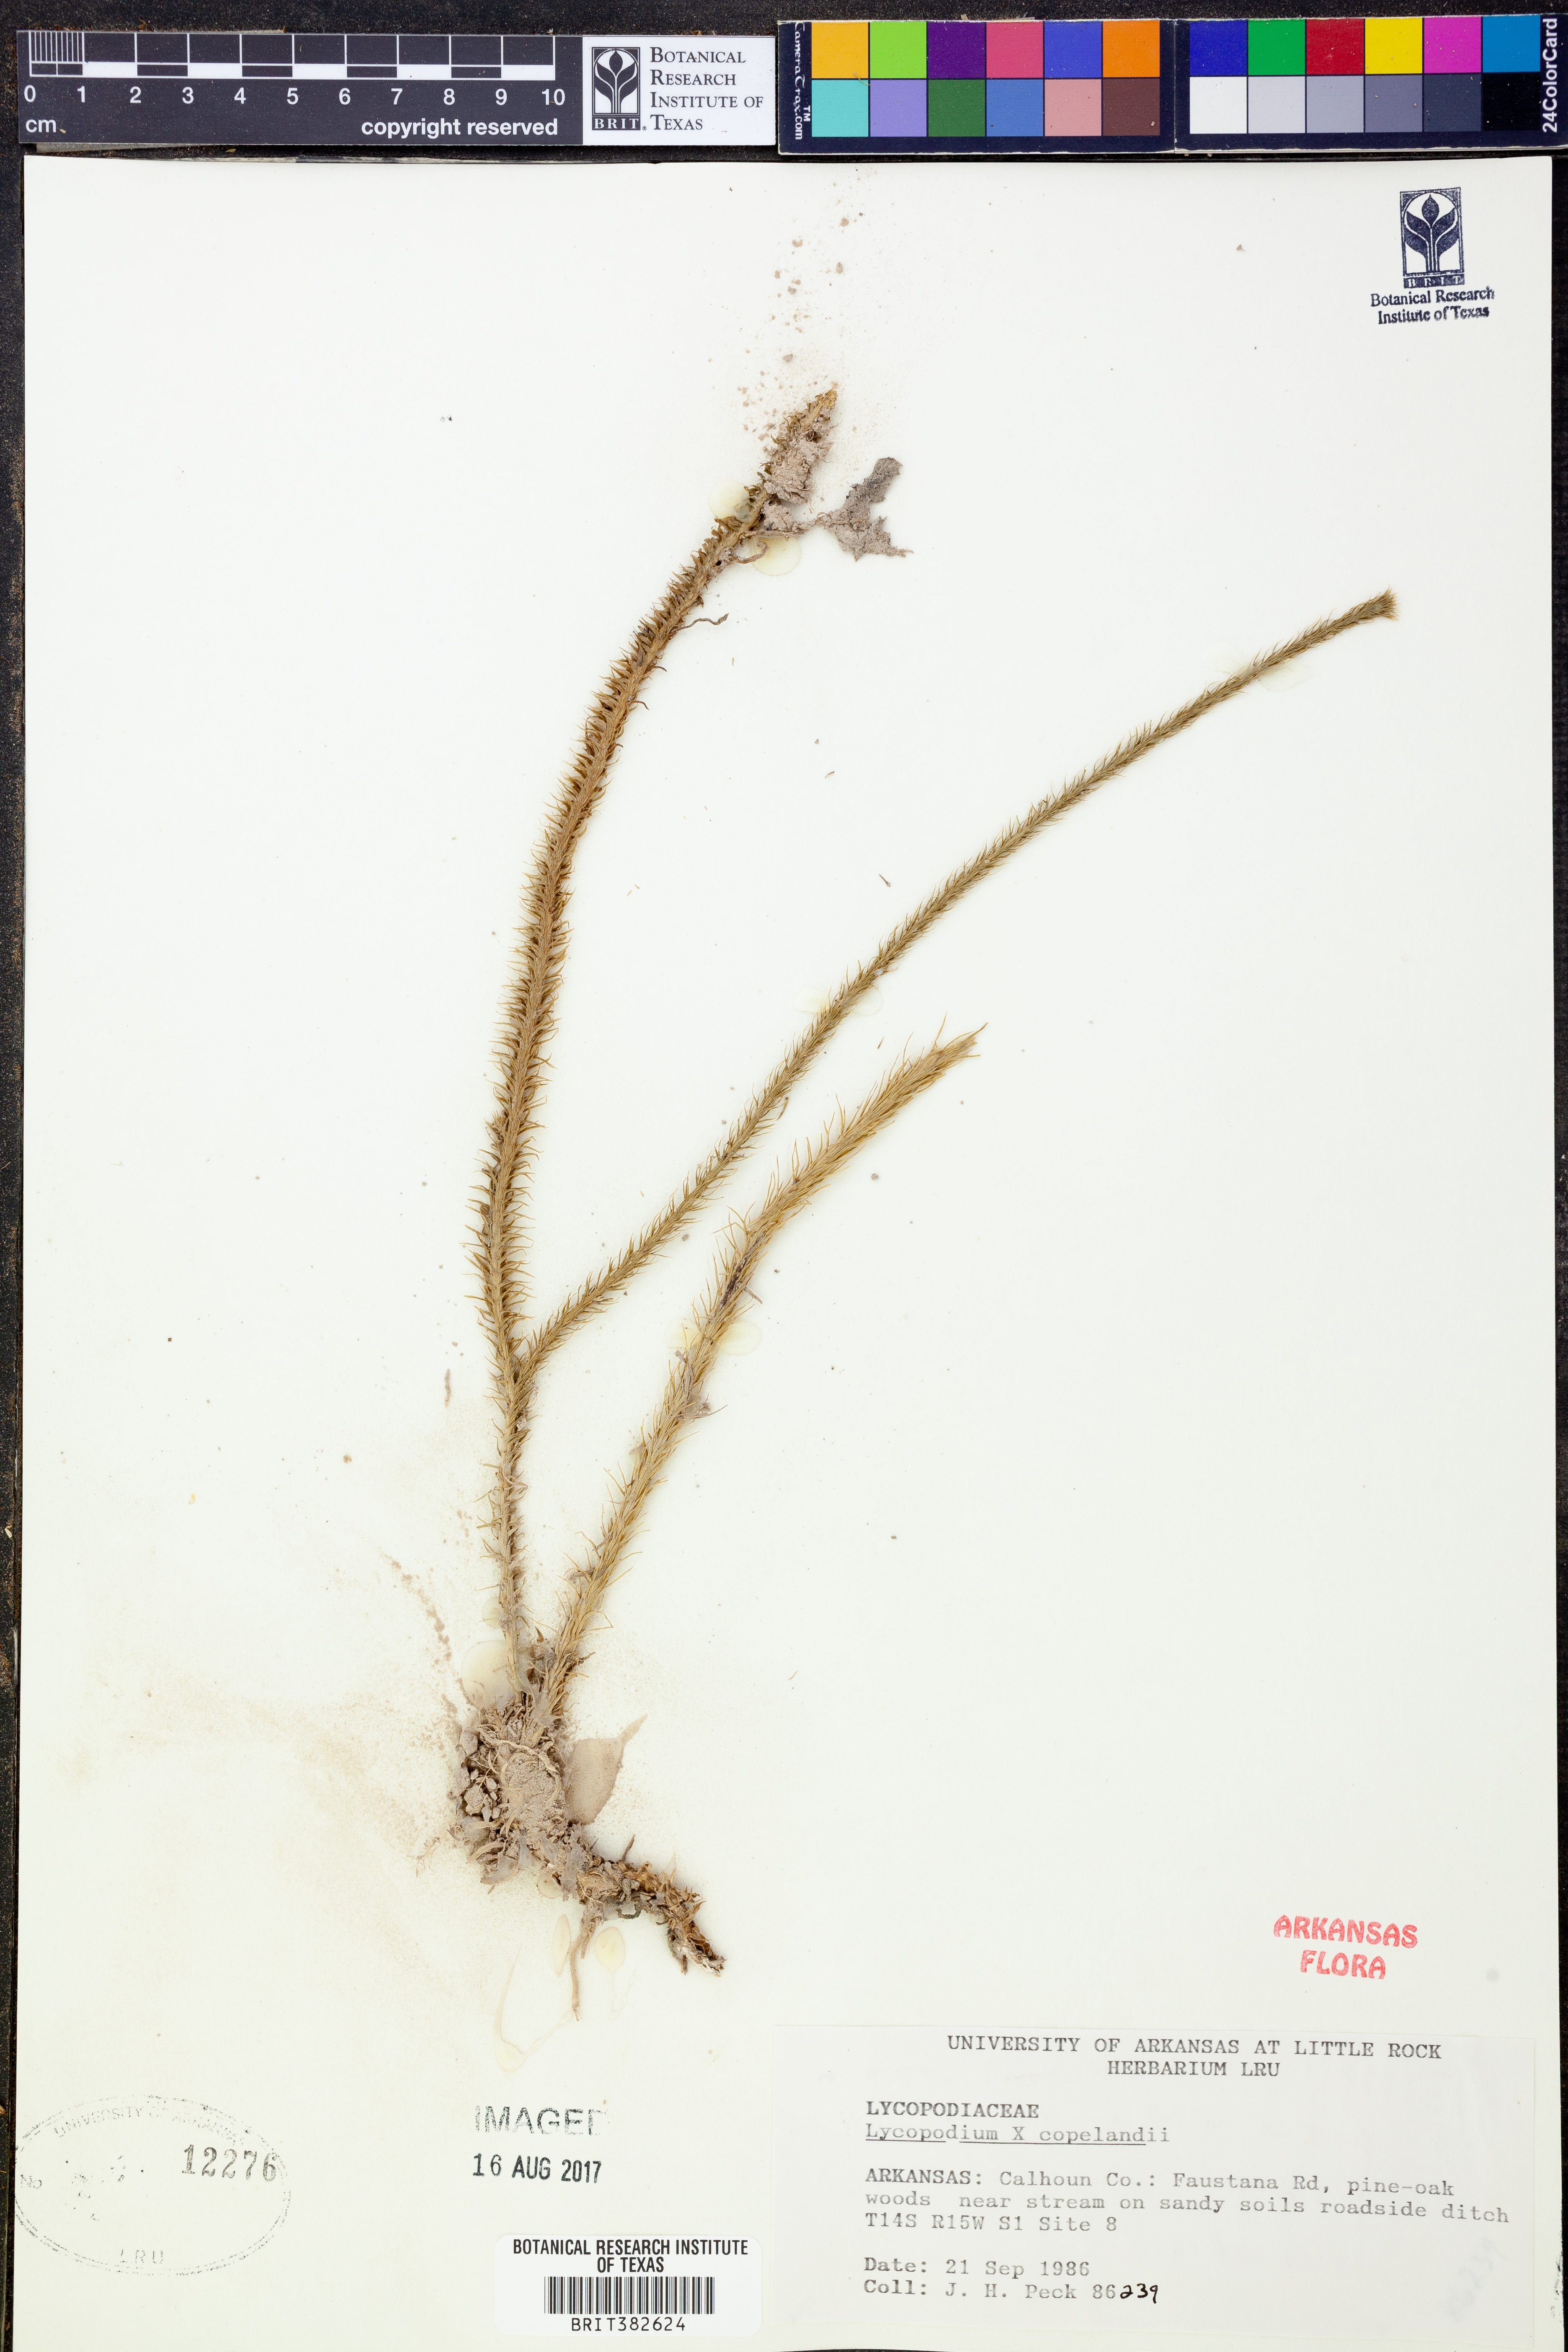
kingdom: Plantae
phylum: Tracheophyta
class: Lycopodiopsida
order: Lycopodiales
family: Lycopodiaceae
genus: Lycopodiella
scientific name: Lycopodiella copelandii
